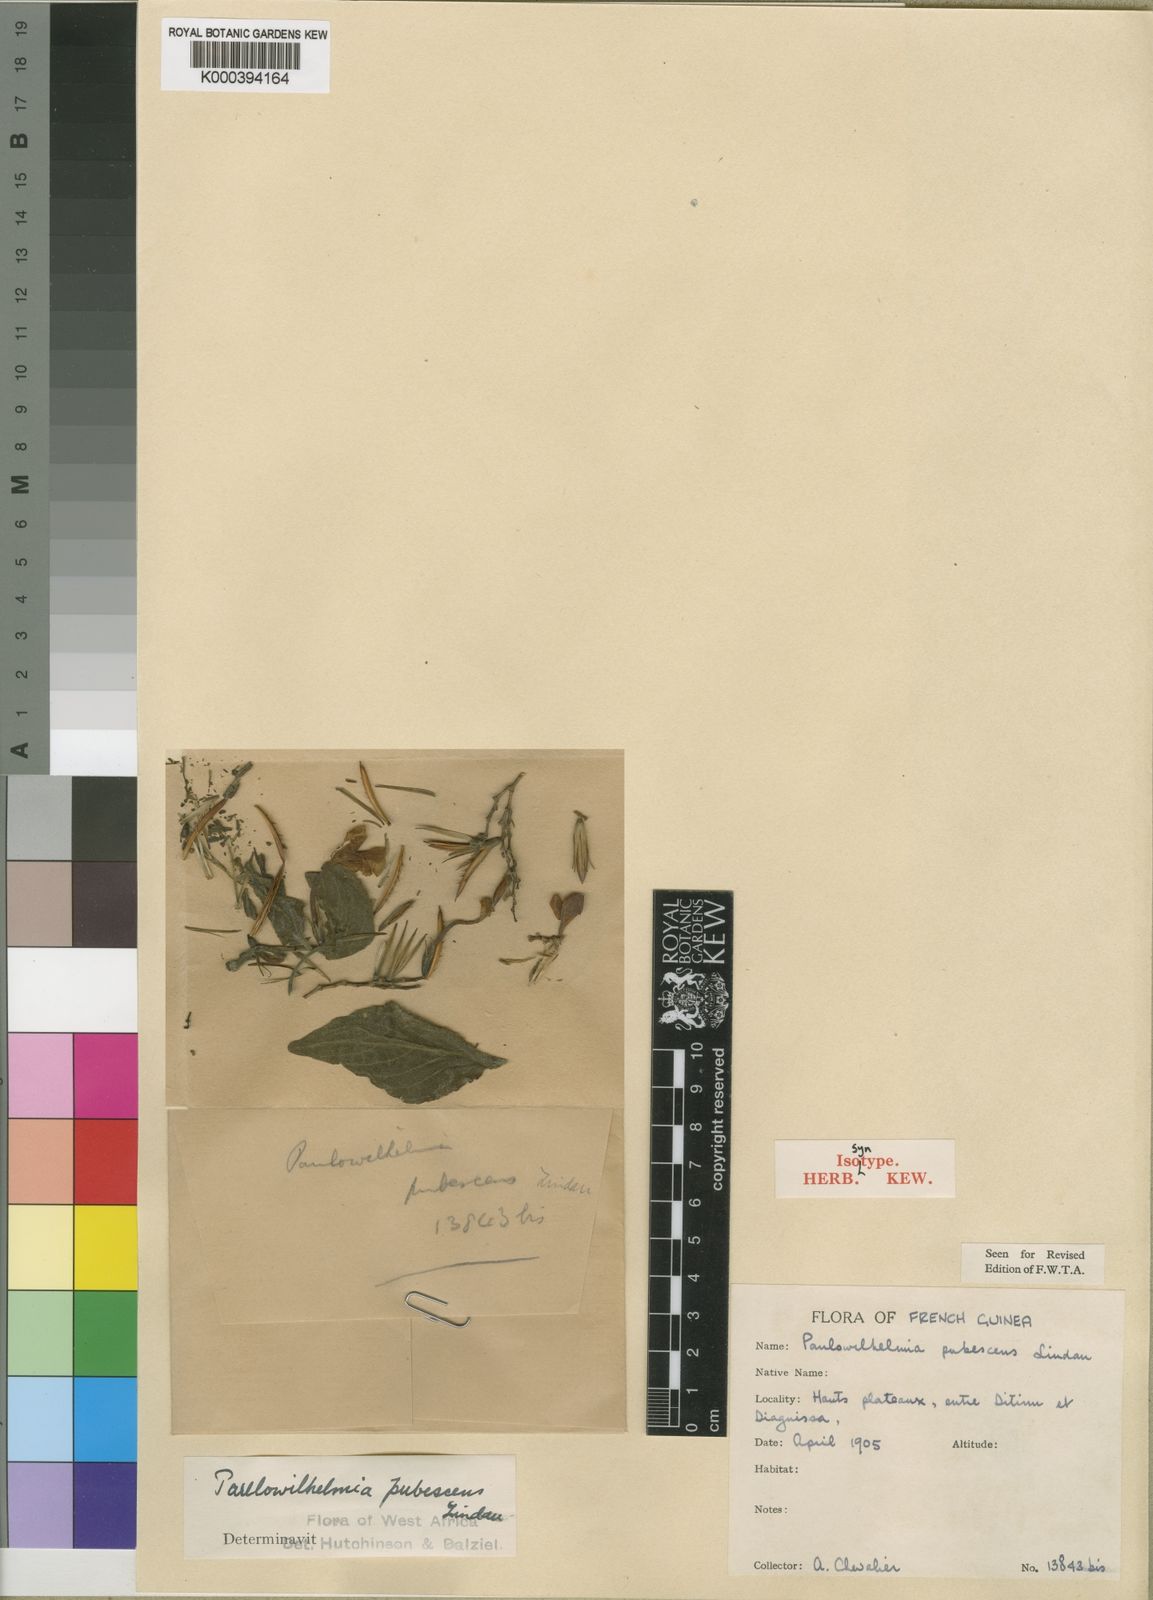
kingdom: Plantae
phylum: Tracheophyta
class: Magnoliopsida
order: Lamiales
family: Acanthaceae
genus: Eremomastax
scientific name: Eremomastax speciosa
